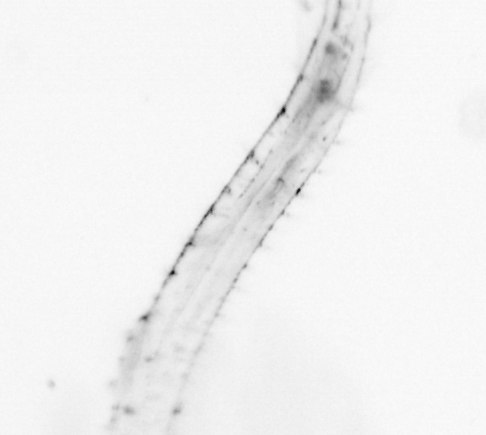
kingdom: Animalia
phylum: Chaetognatha
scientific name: Chaetognatha
